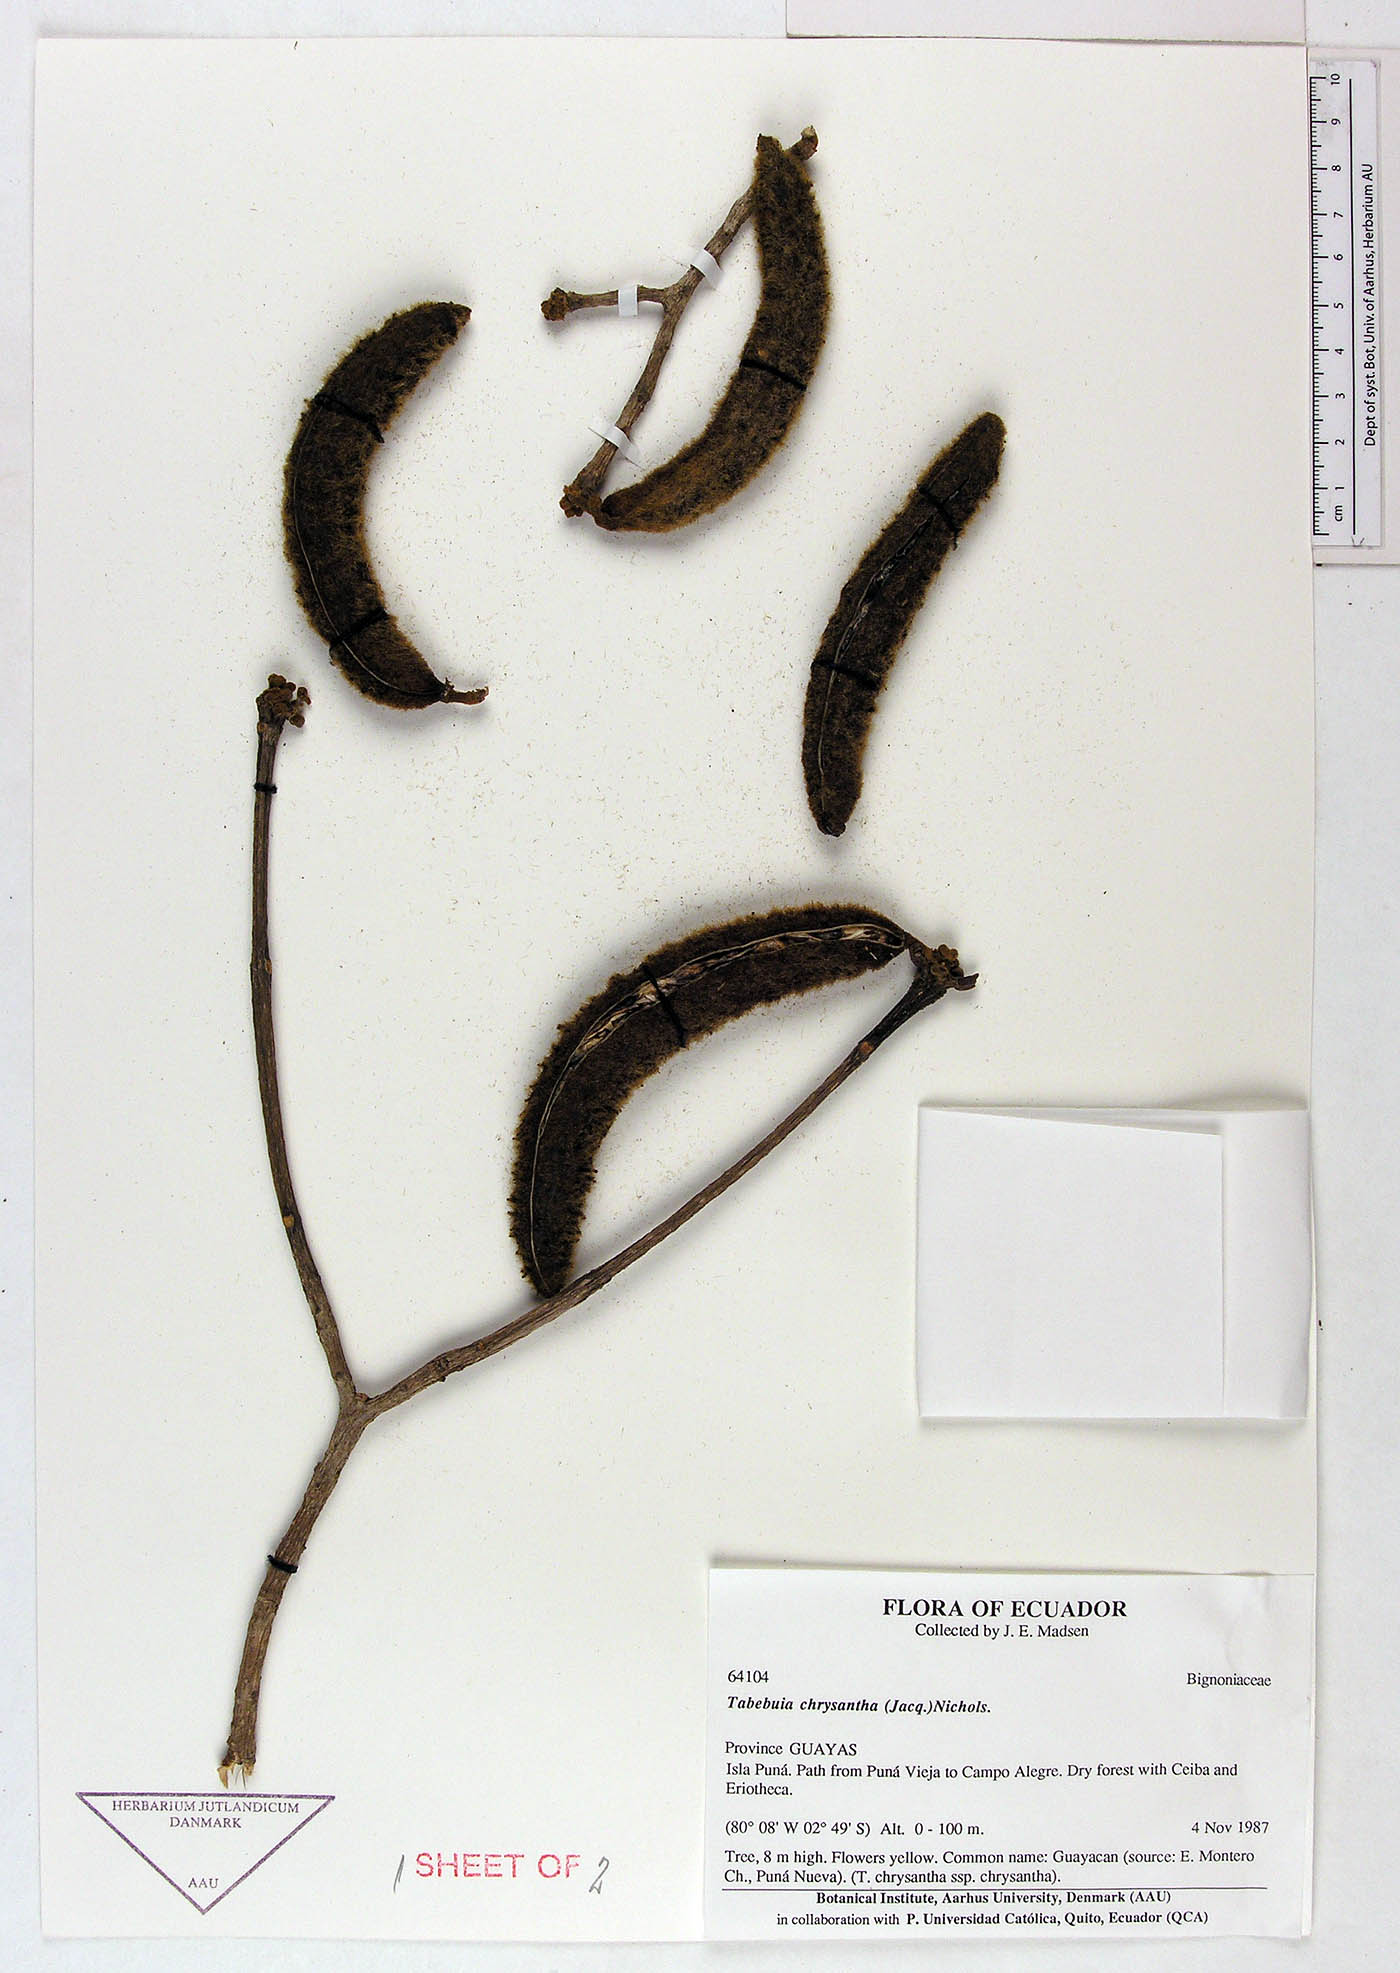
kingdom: Plantae
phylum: Tracheophyta
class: Magnoliopsida
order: Lamiales
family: Bignoniaceae
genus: Handroanthus
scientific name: Handroanthus chrysanthus
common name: Trumpet trees
